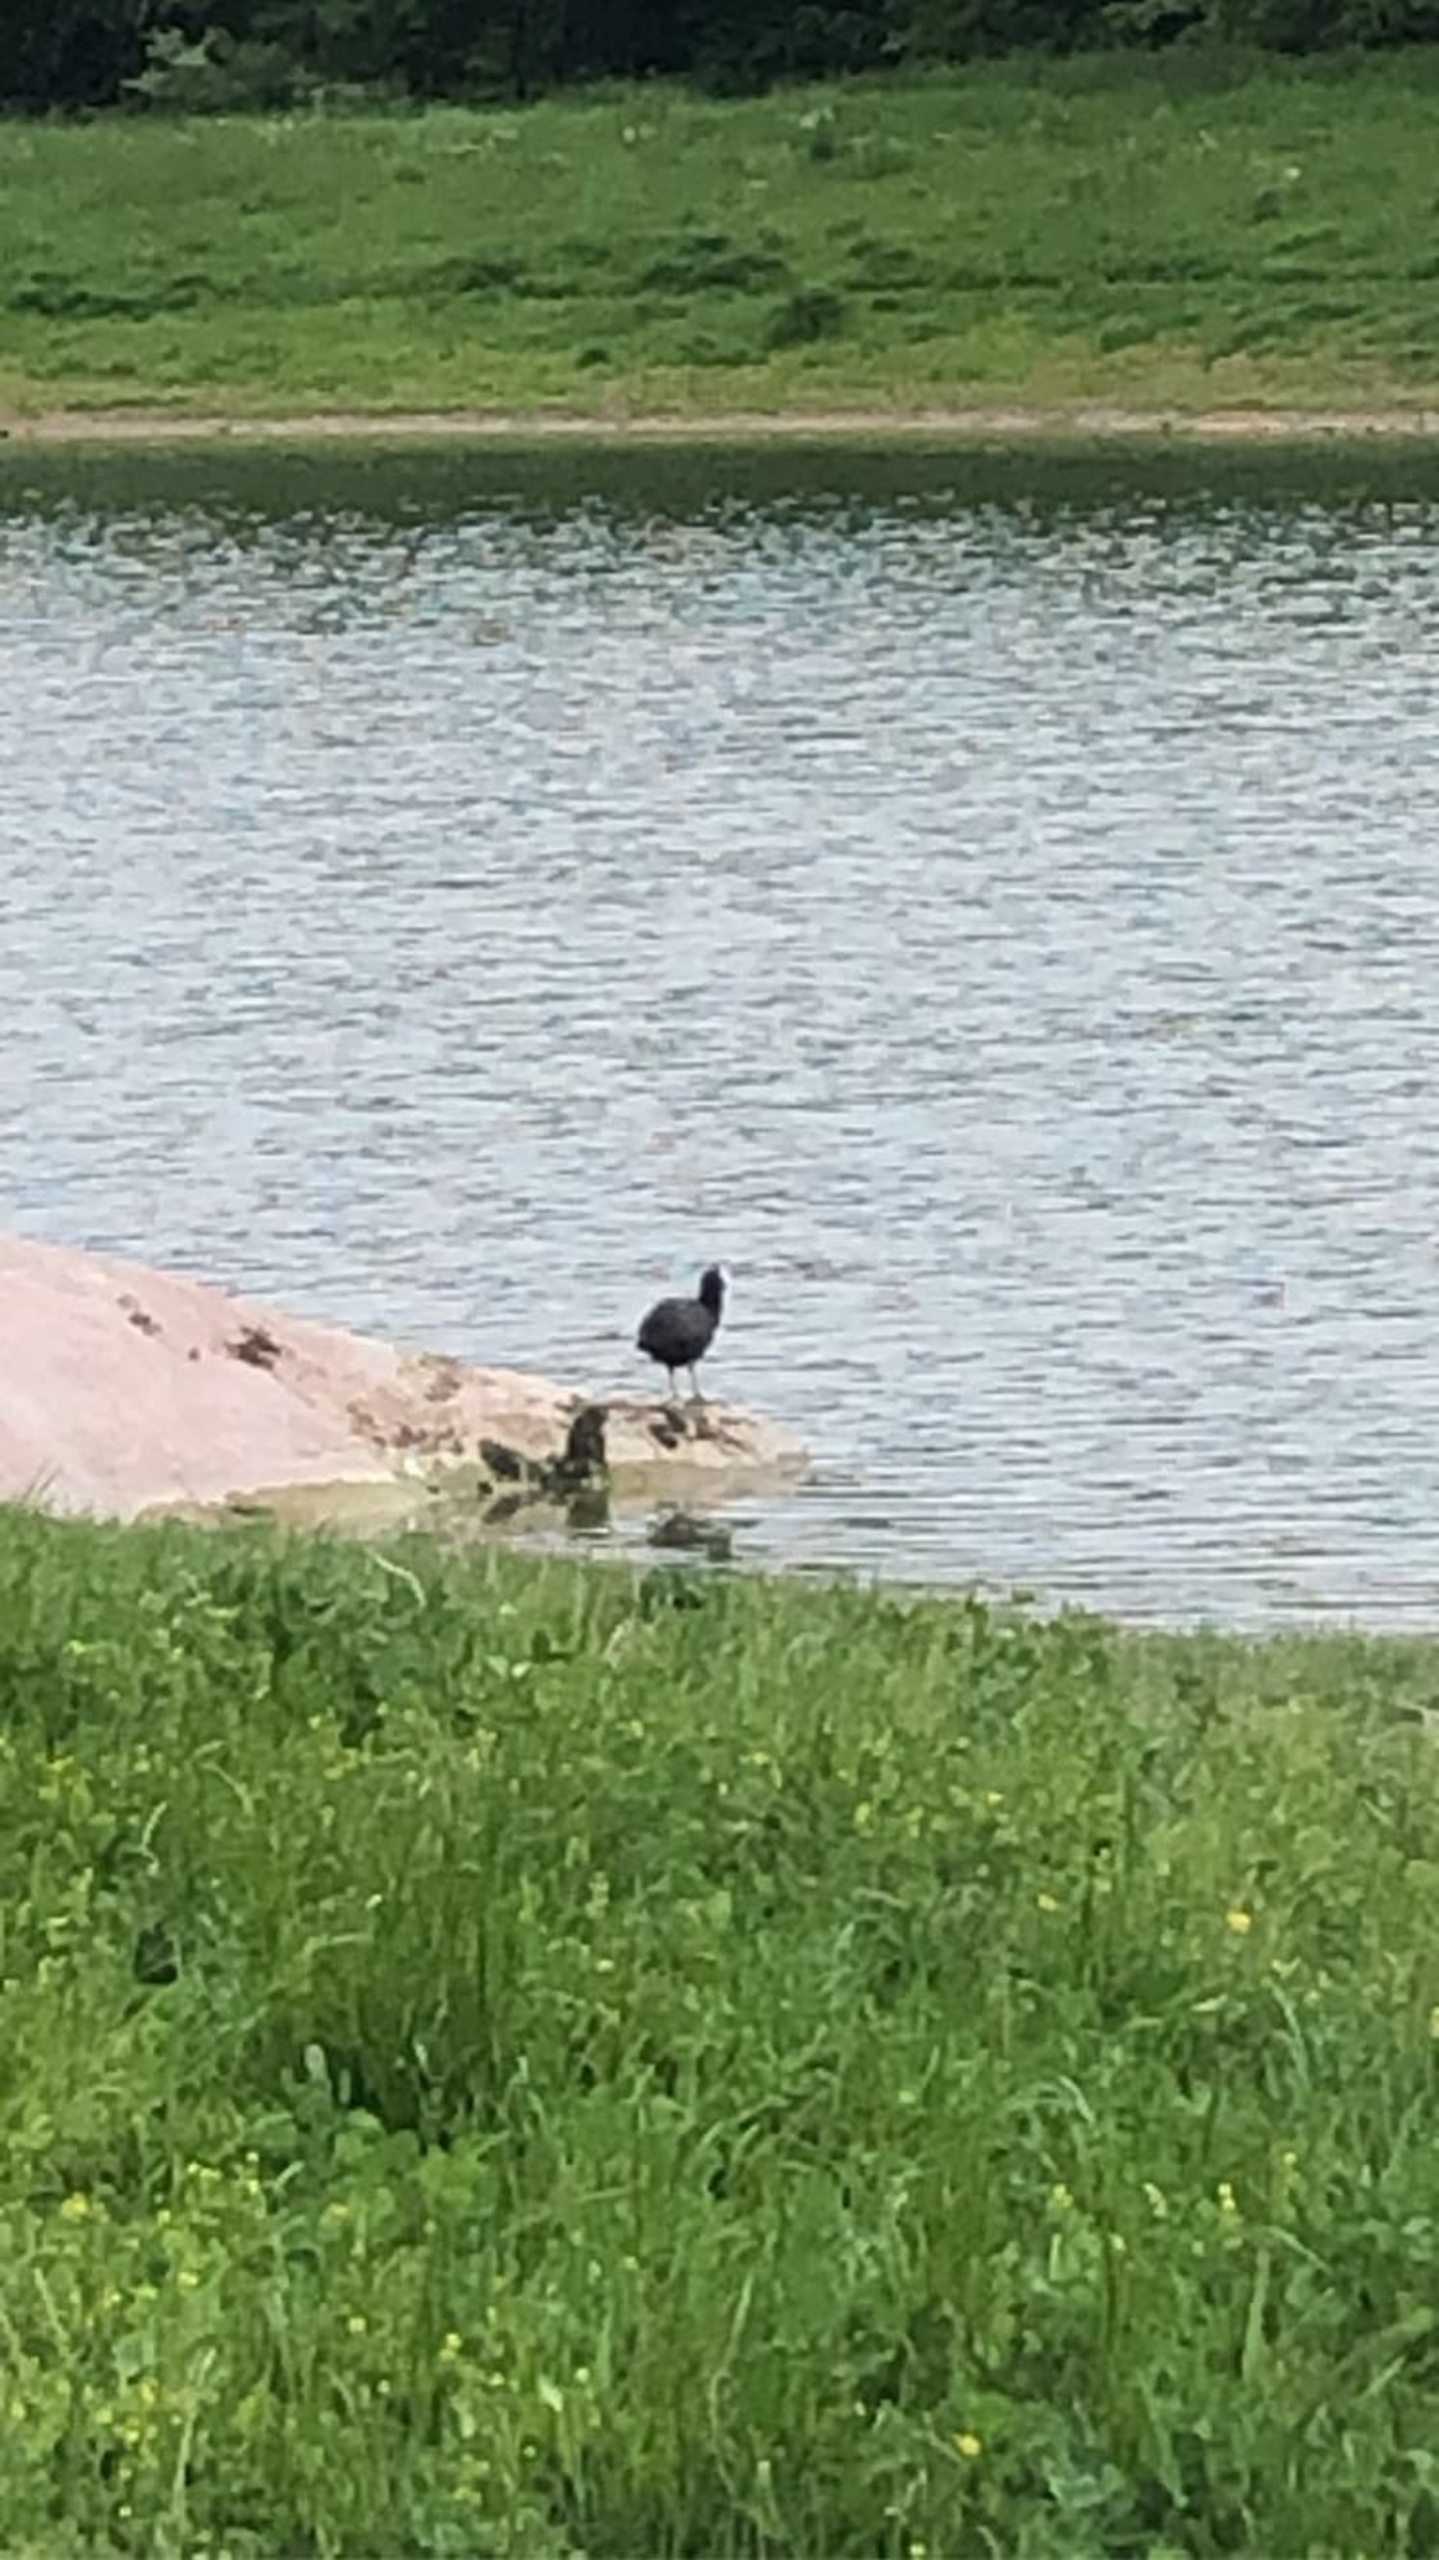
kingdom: Animalia
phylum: Chordata
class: Aves
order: Gruiformes
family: Rallidae
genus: Fulica
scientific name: Fulica atra
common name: Blishøne
